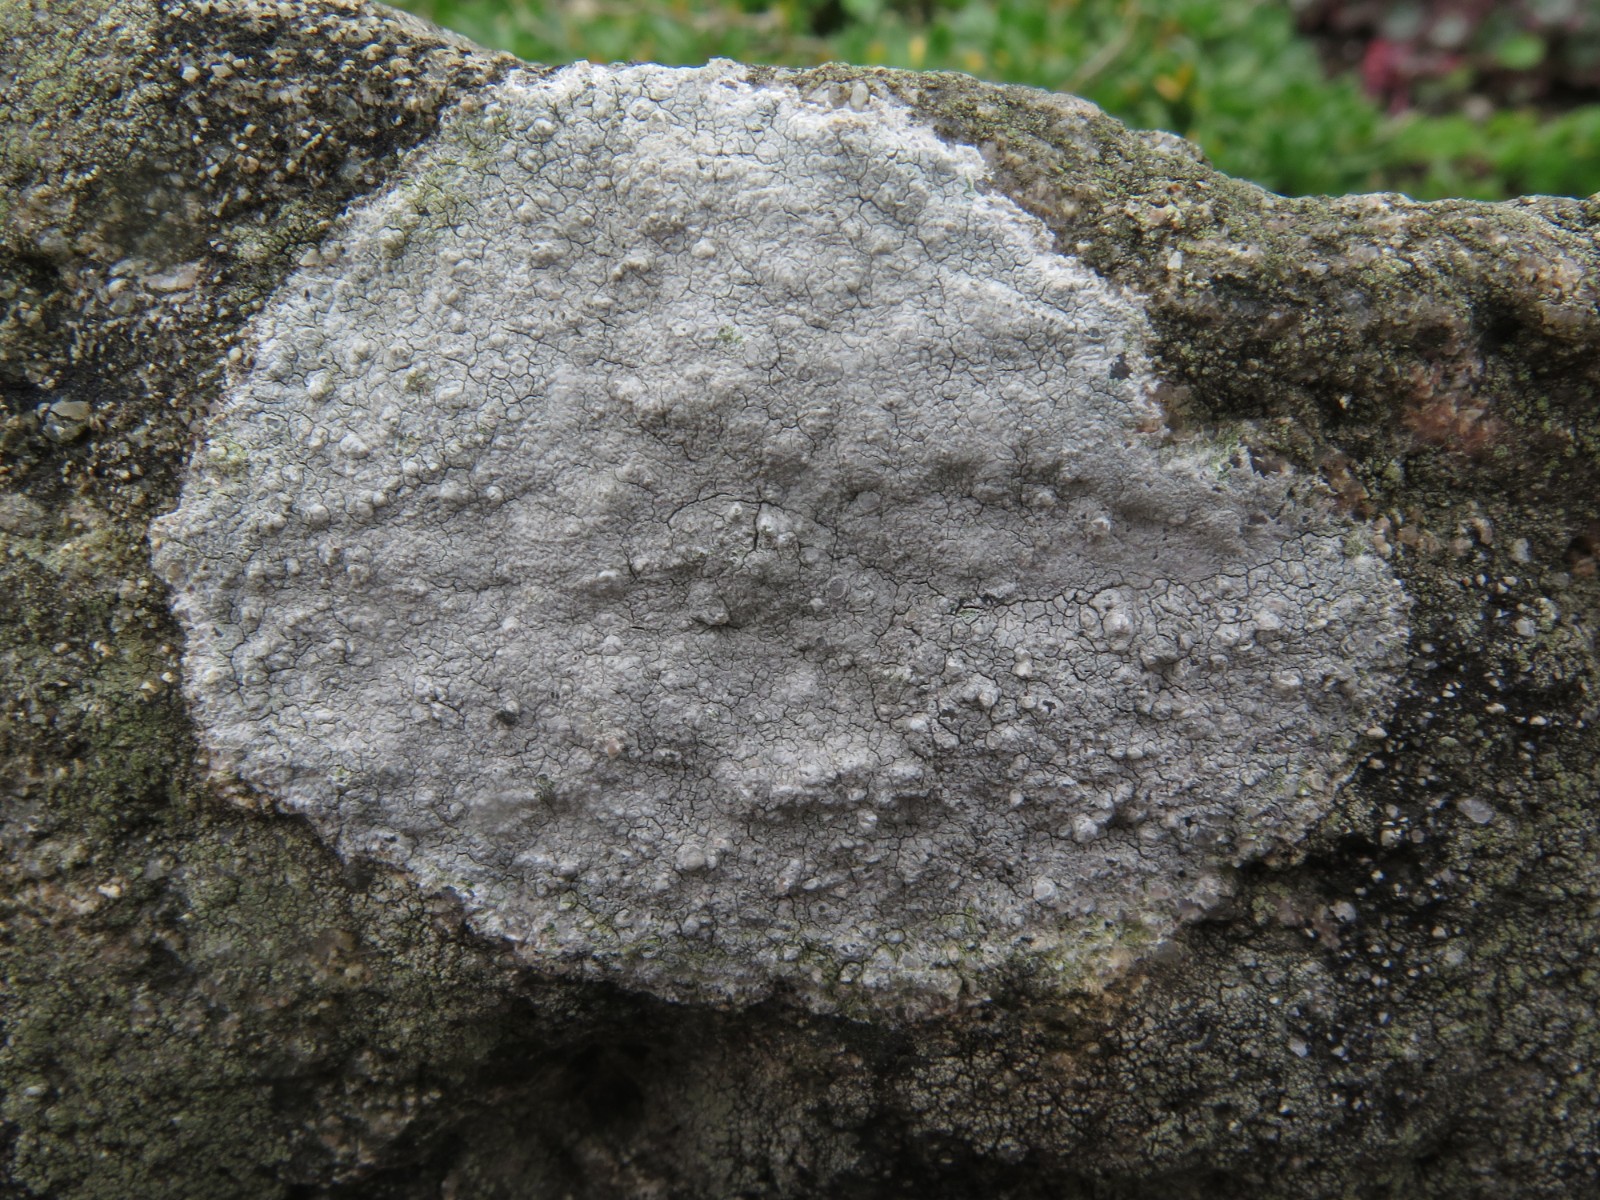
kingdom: Fungi
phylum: Ascomycota
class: Lecanoromycetes
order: Lecanorales
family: Lecanoraceae
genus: Glaucomaria
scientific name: Glaucomaria rupicola
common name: stengærde-kantskivelav
